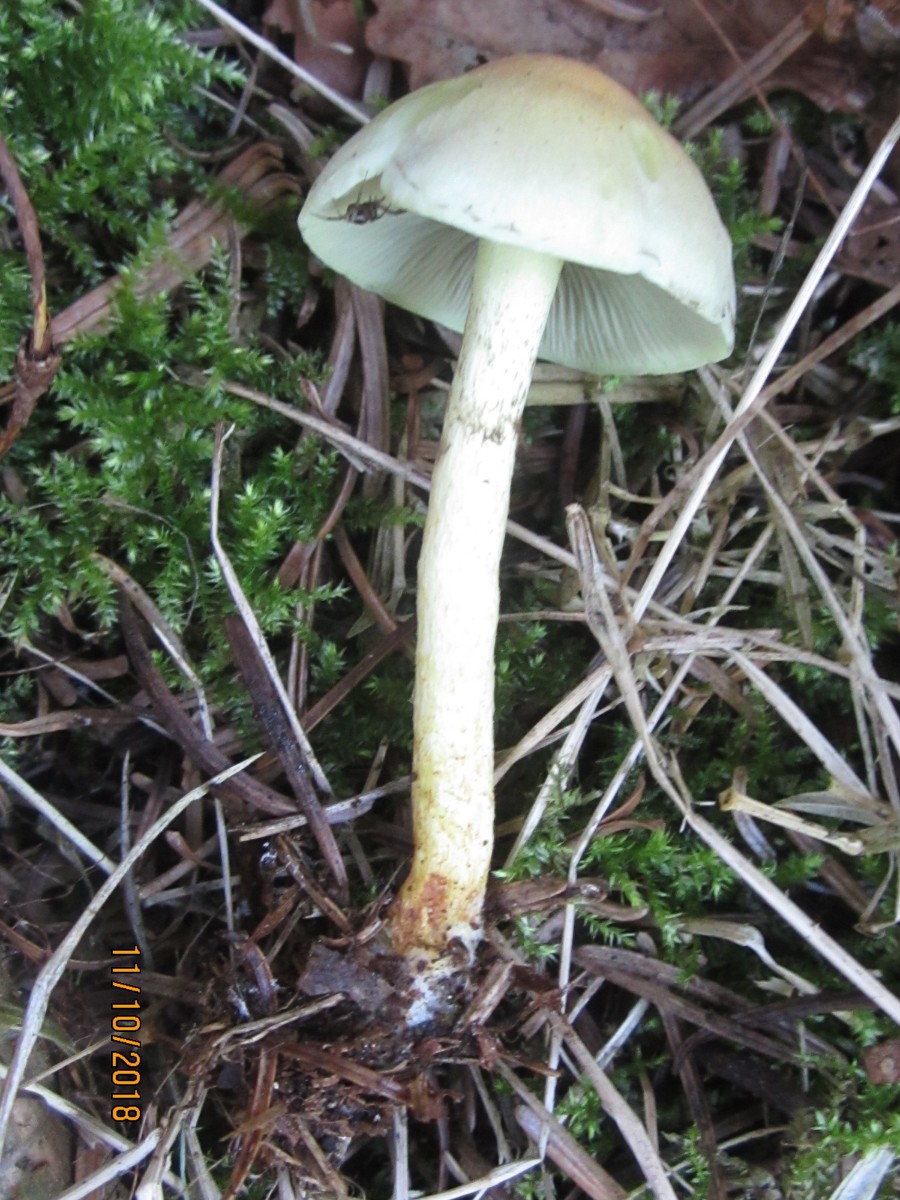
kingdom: Fungi
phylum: Basidiomycota
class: Agaricomycetes
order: Agaricales
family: Strophariaceae
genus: Hypholoma
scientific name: Hypholoma
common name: svovlhat
